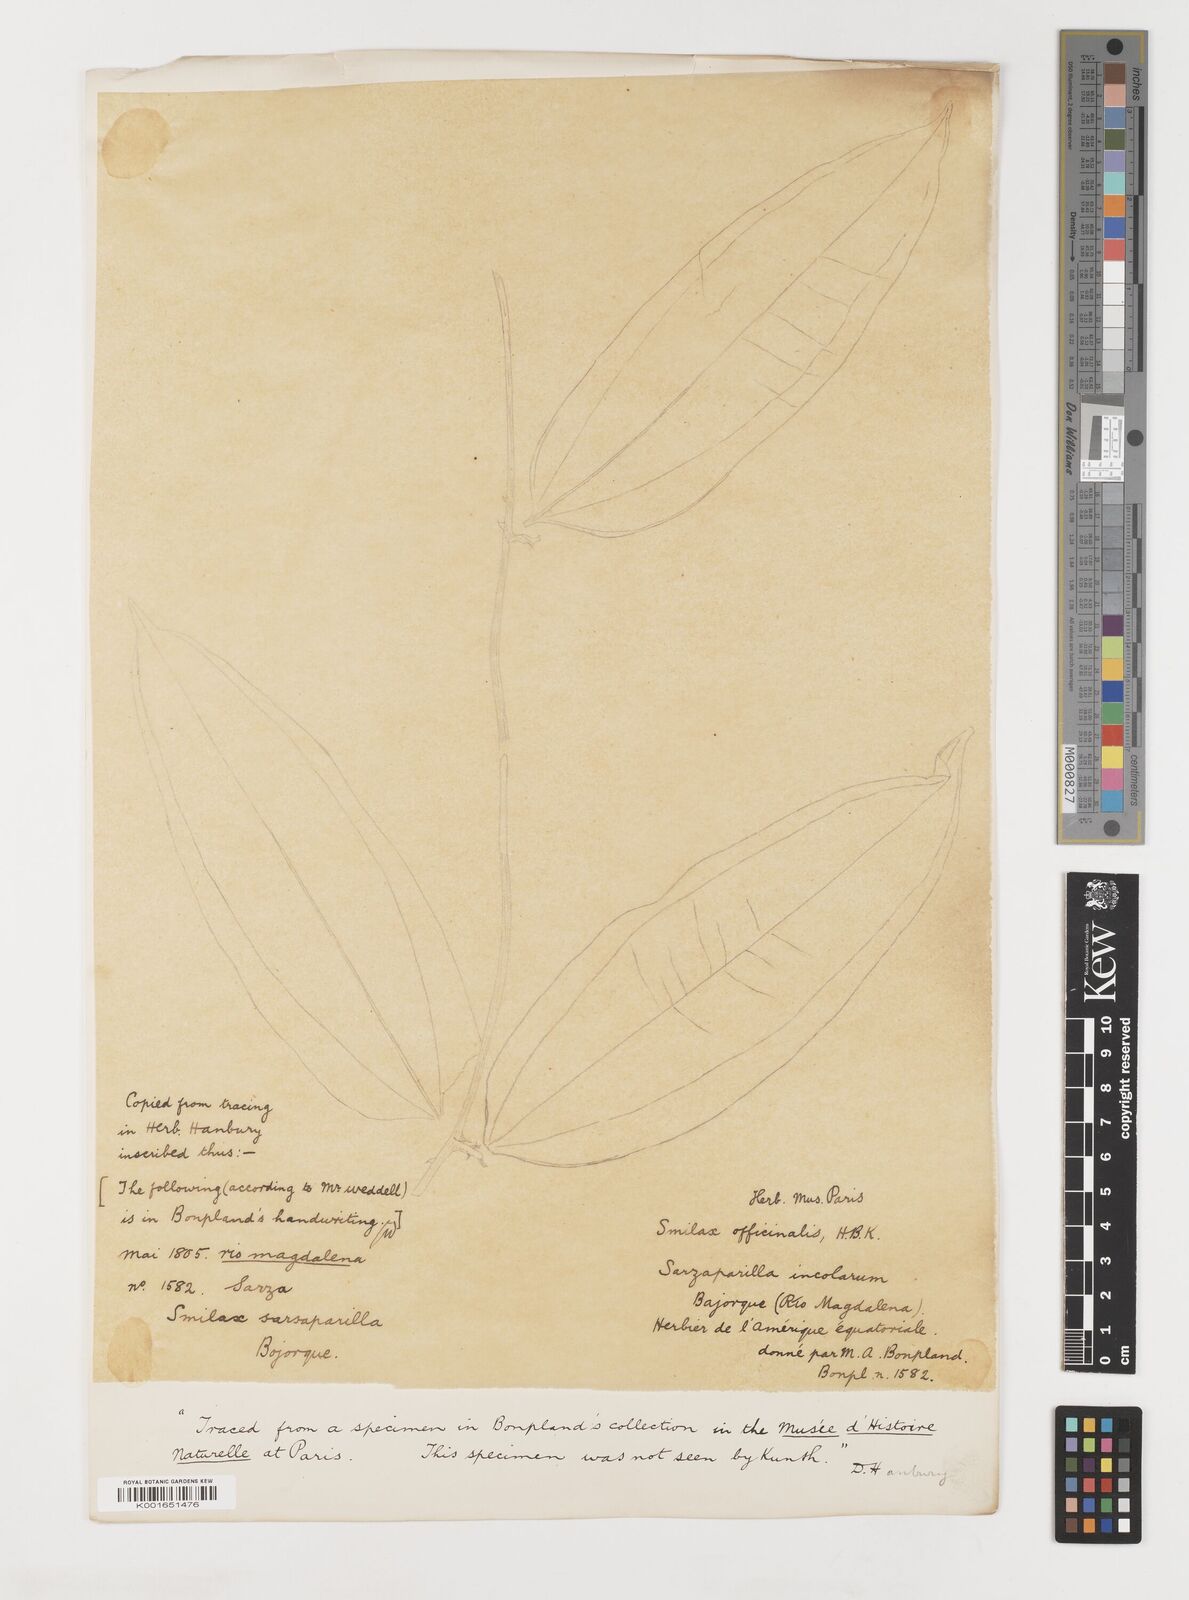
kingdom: Plantae
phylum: Tracheophyta
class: Liliopsida
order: Liliales
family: Smilacaceae
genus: Smilax
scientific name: Smilax officinalis
